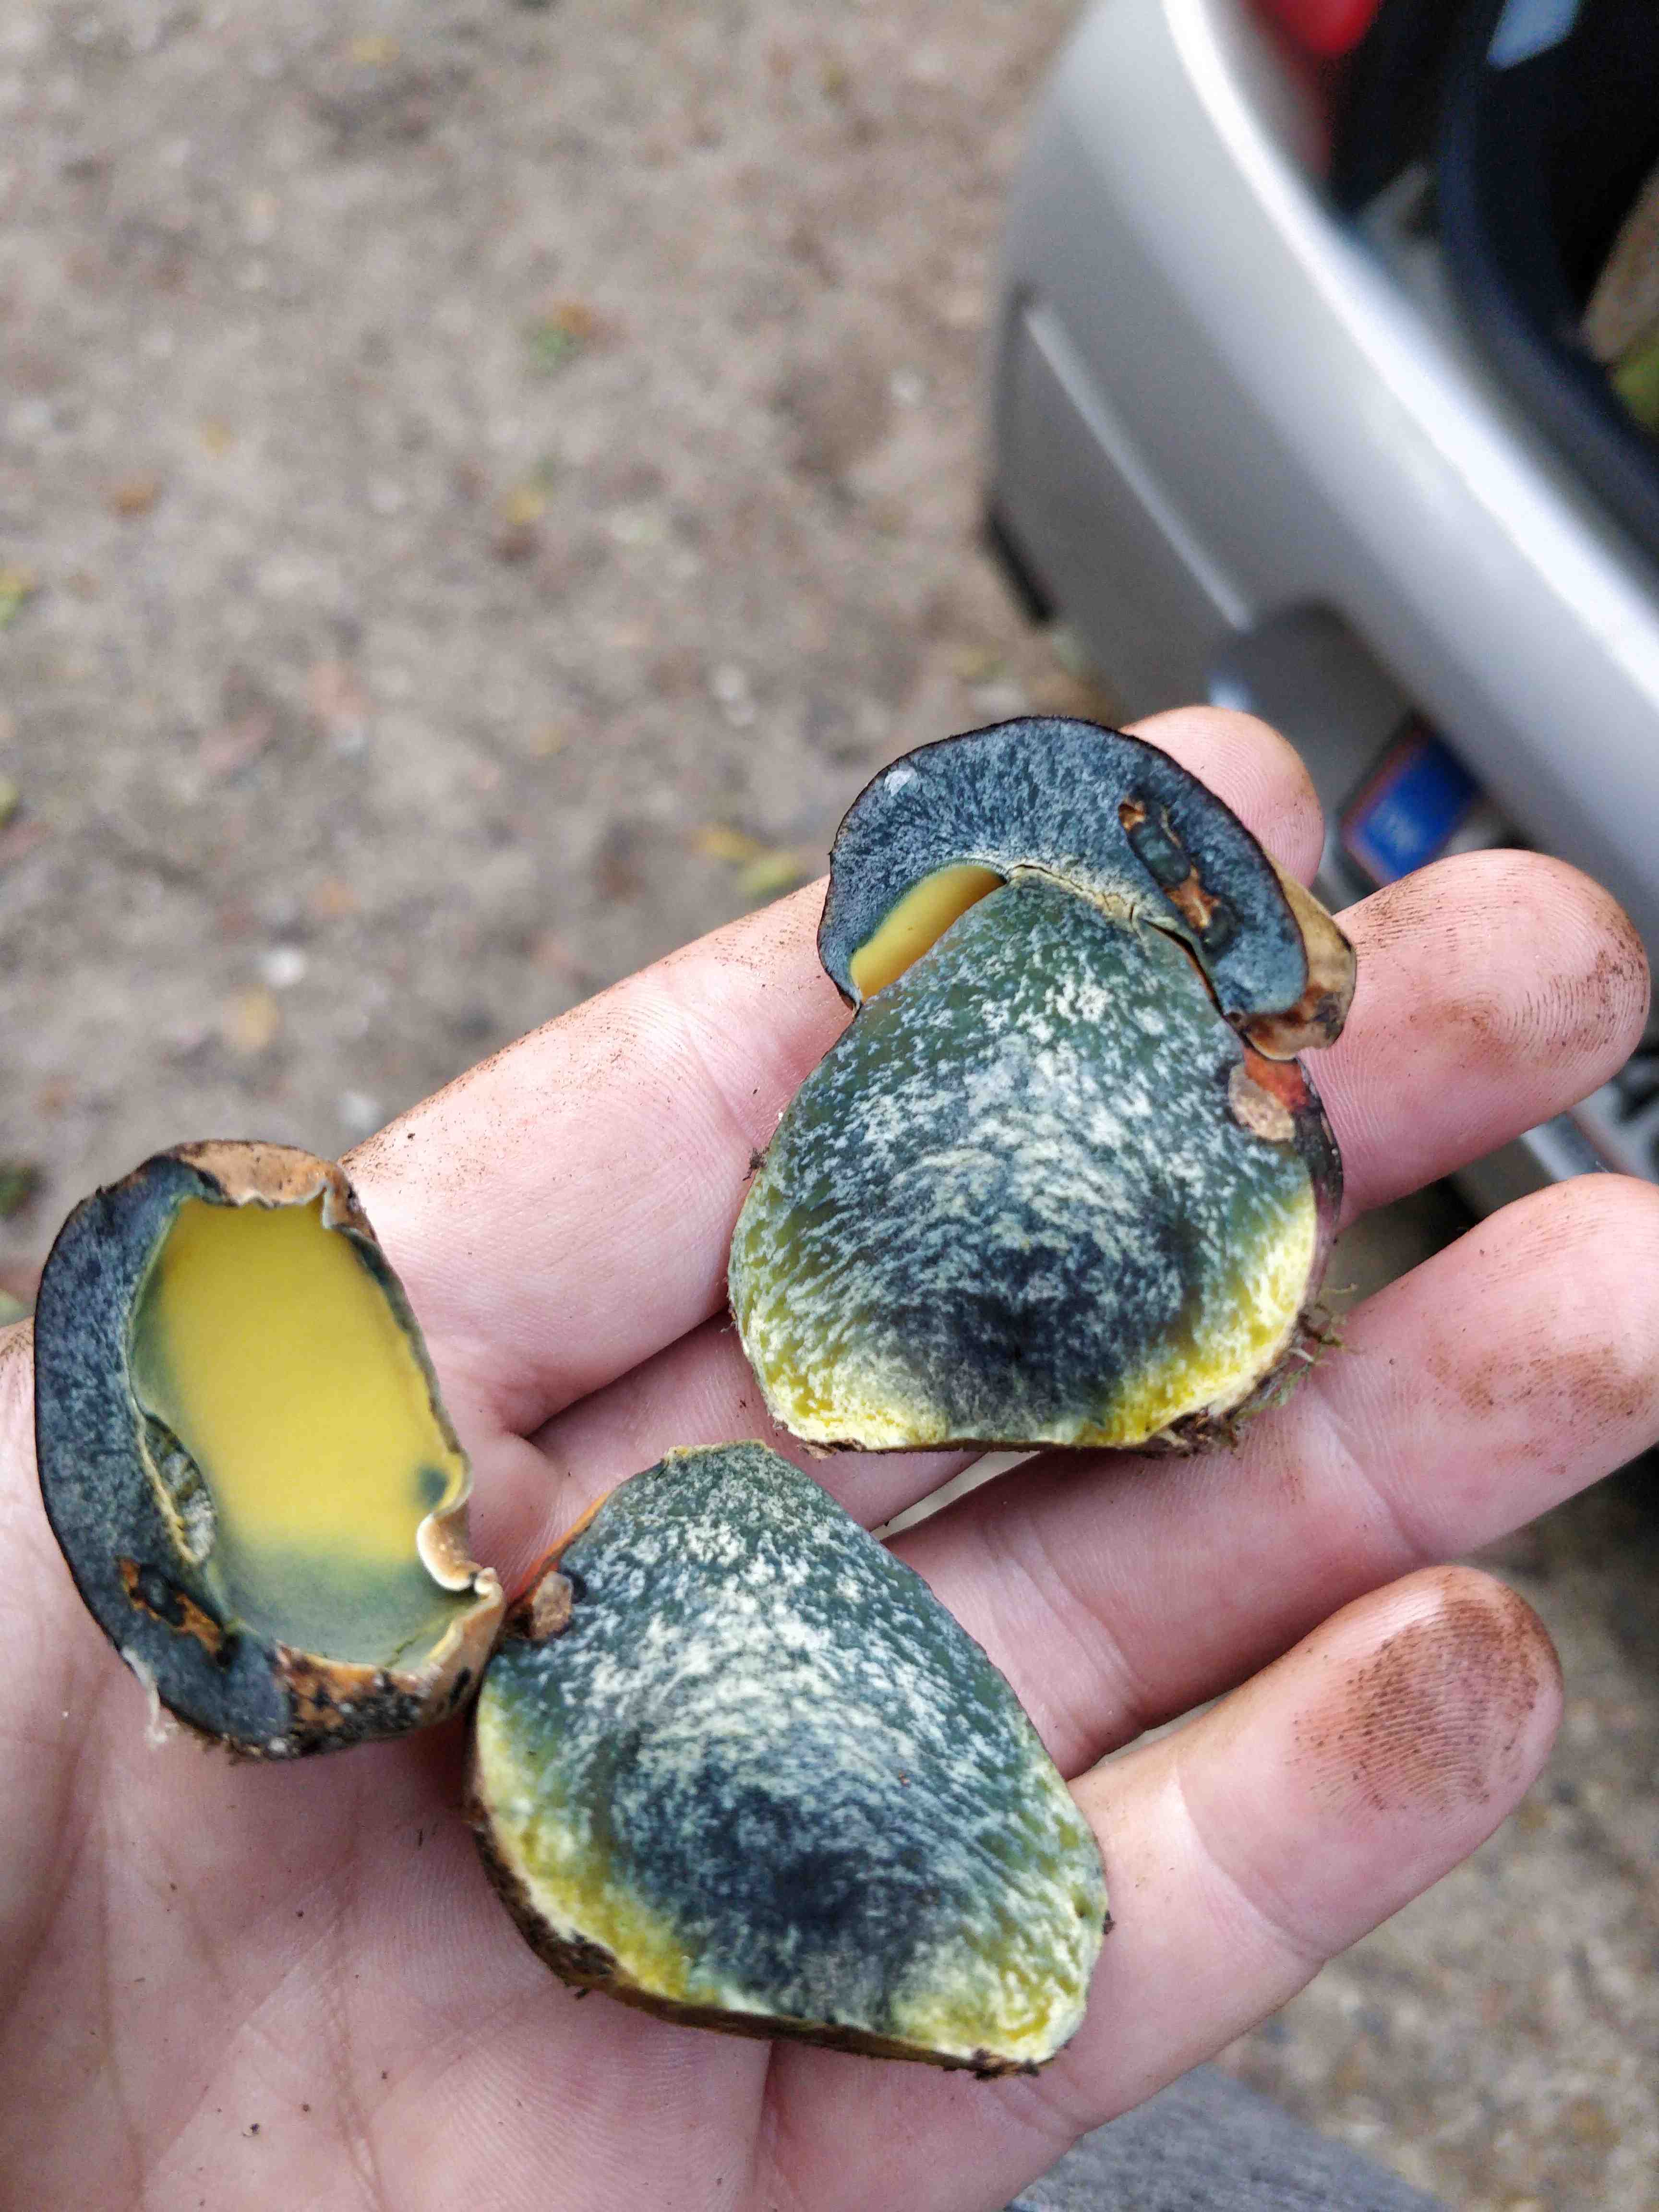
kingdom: Fungi
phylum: Basidiomycota
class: Agaricomycetes
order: Boletales
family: Boletaceae
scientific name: Boletaceae
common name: rørhatfamilien
